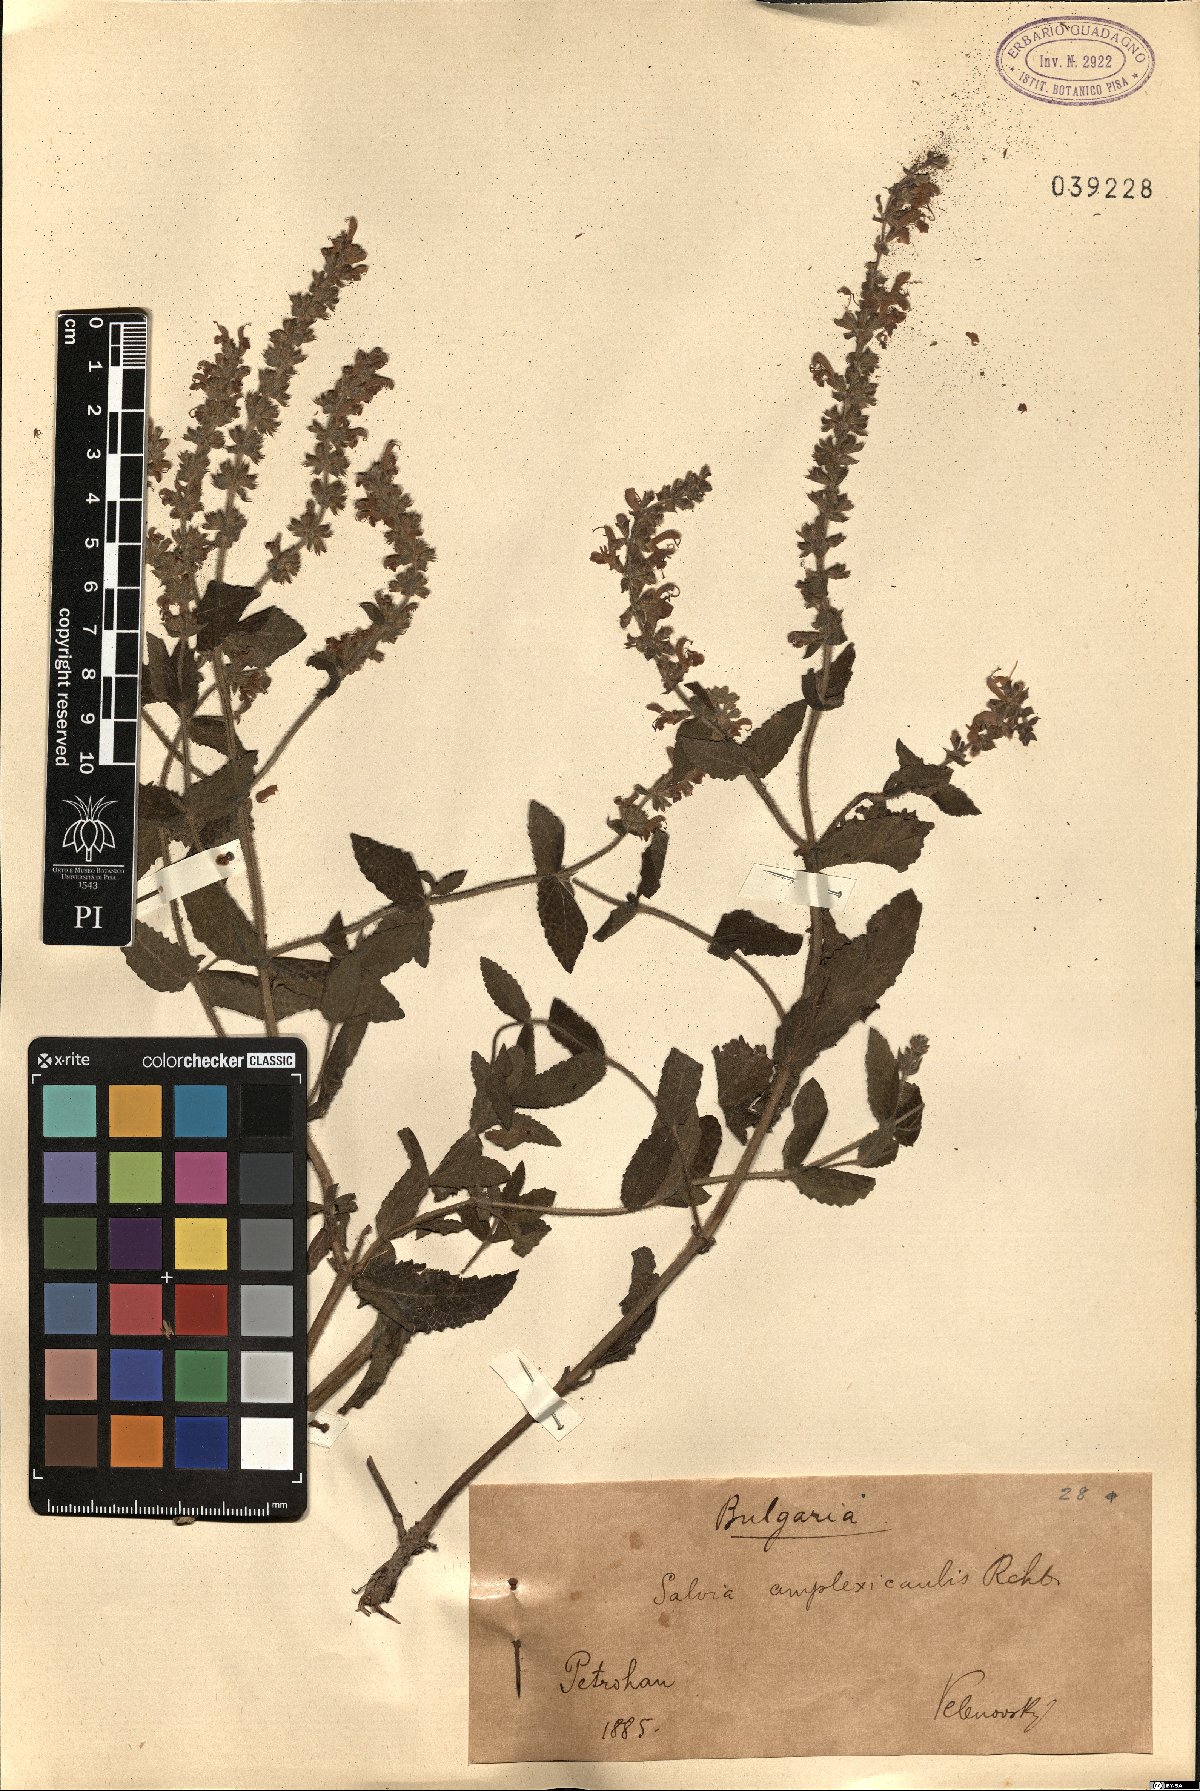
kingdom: Plantae
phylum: Tracheophyta
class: Magnoliopsida
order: Lamiales
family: Lamiaceae
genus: Salvia
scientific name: Salvia amplexicaulis
